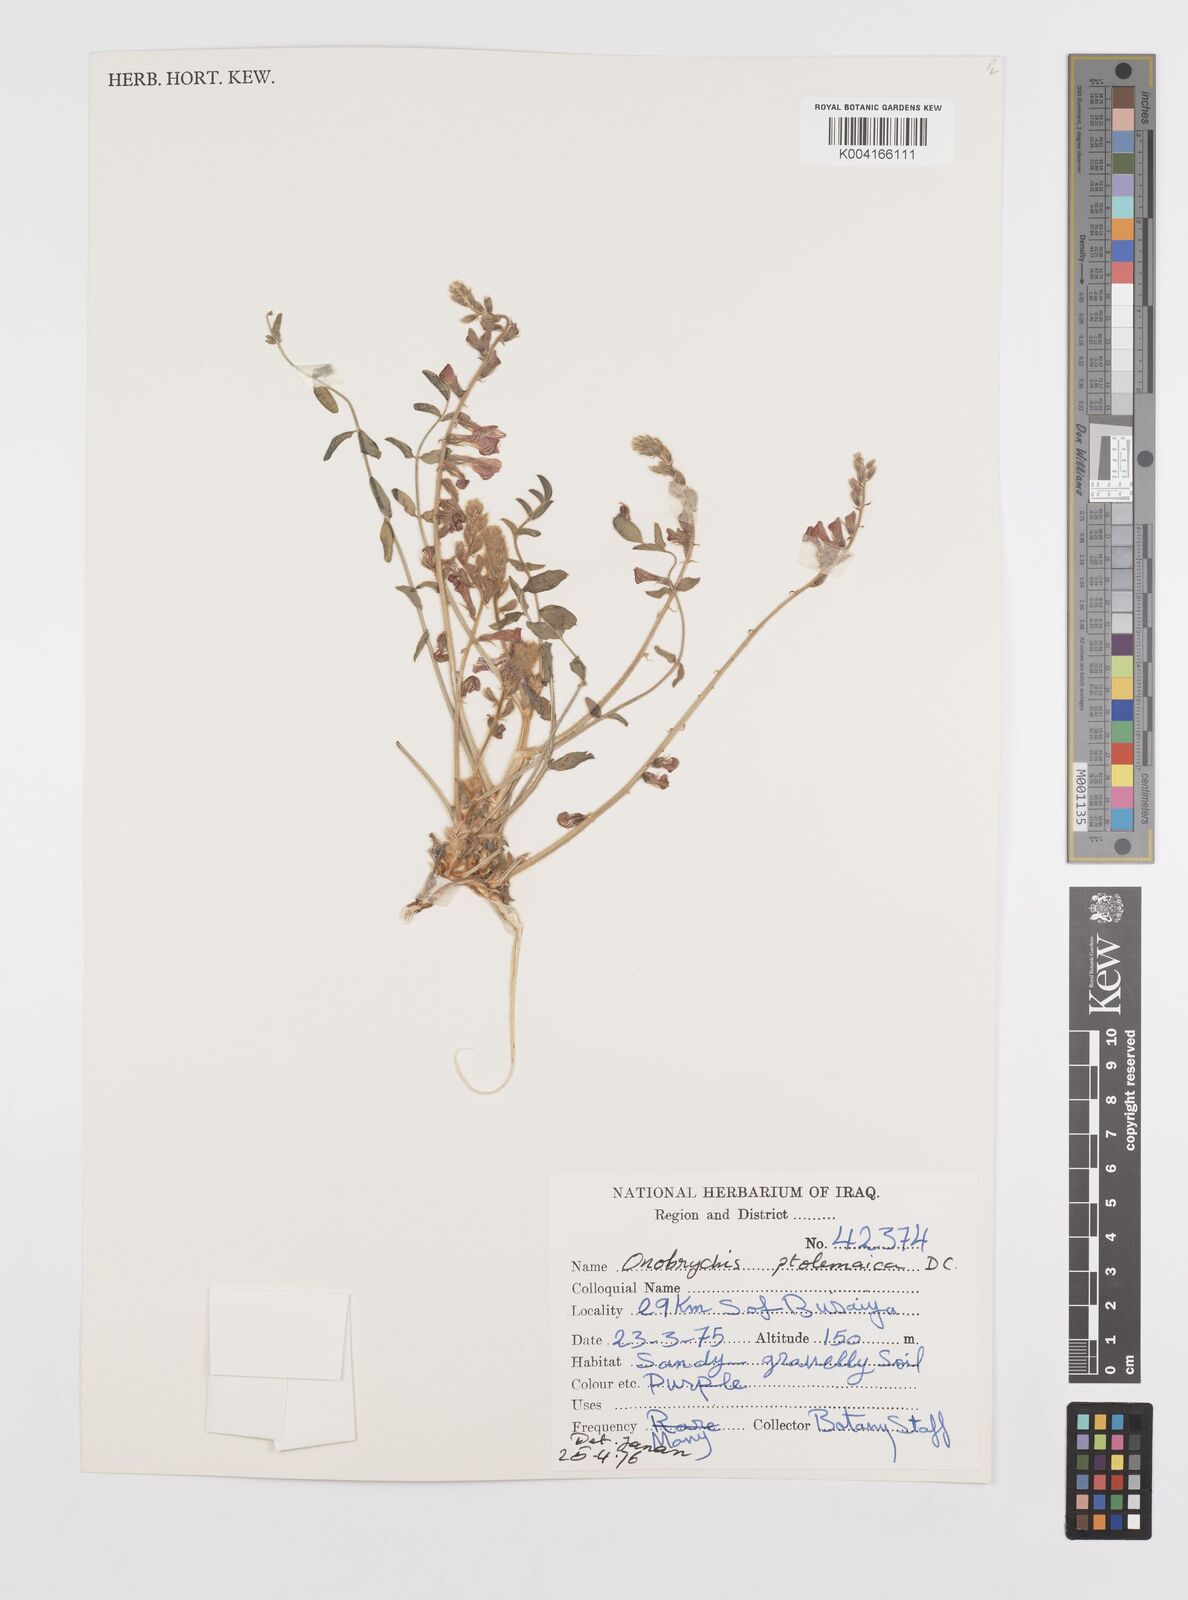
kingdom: Plantae
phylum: Tracheophyta
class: Magnoliopsida
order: Fabales
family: Fabaceae
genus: Onobrychis
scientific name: Onobrychis ptolemaica
